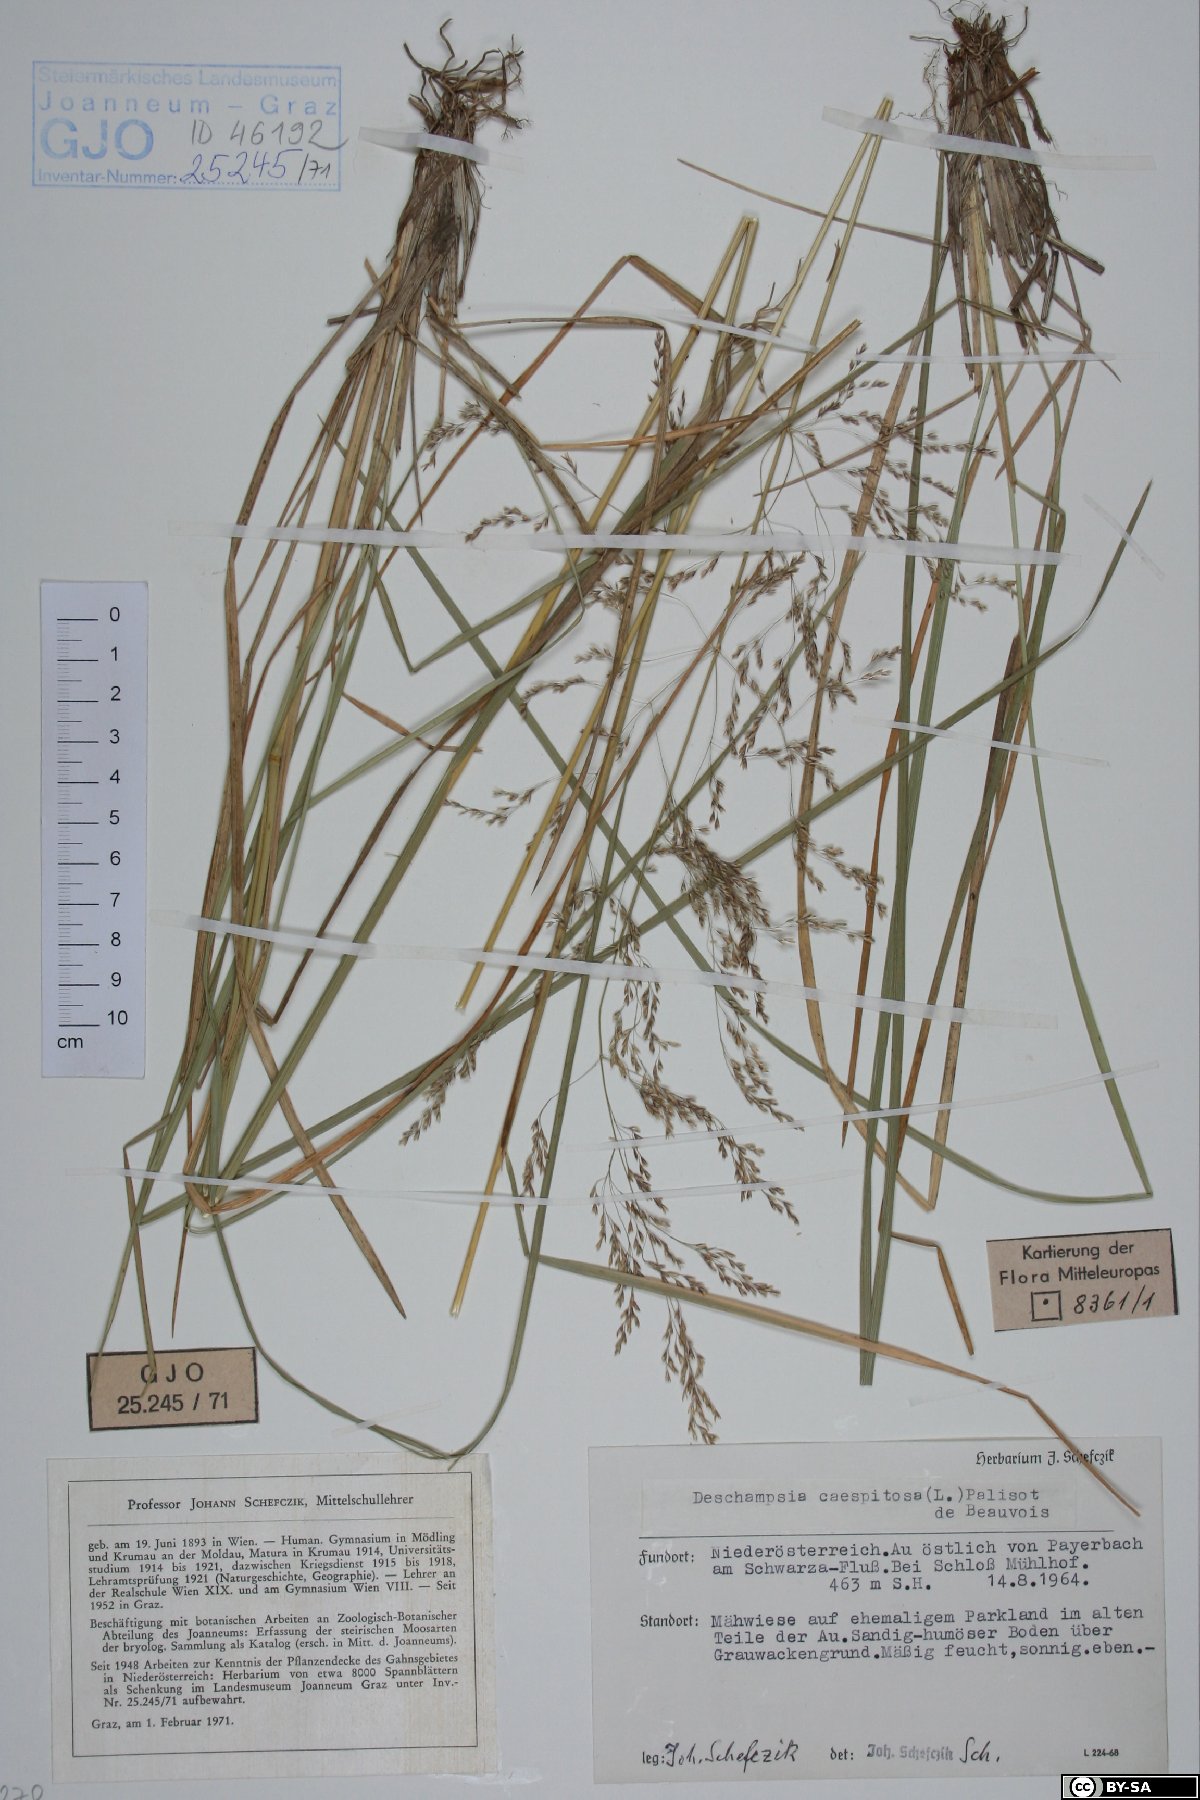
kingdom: Plantae
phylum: Tracheophyta
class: Liliopsida
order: Poales
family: Poaceae
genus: Deschampsia
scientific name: Deschampsia cespitosa
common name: Tufted hair-grass
